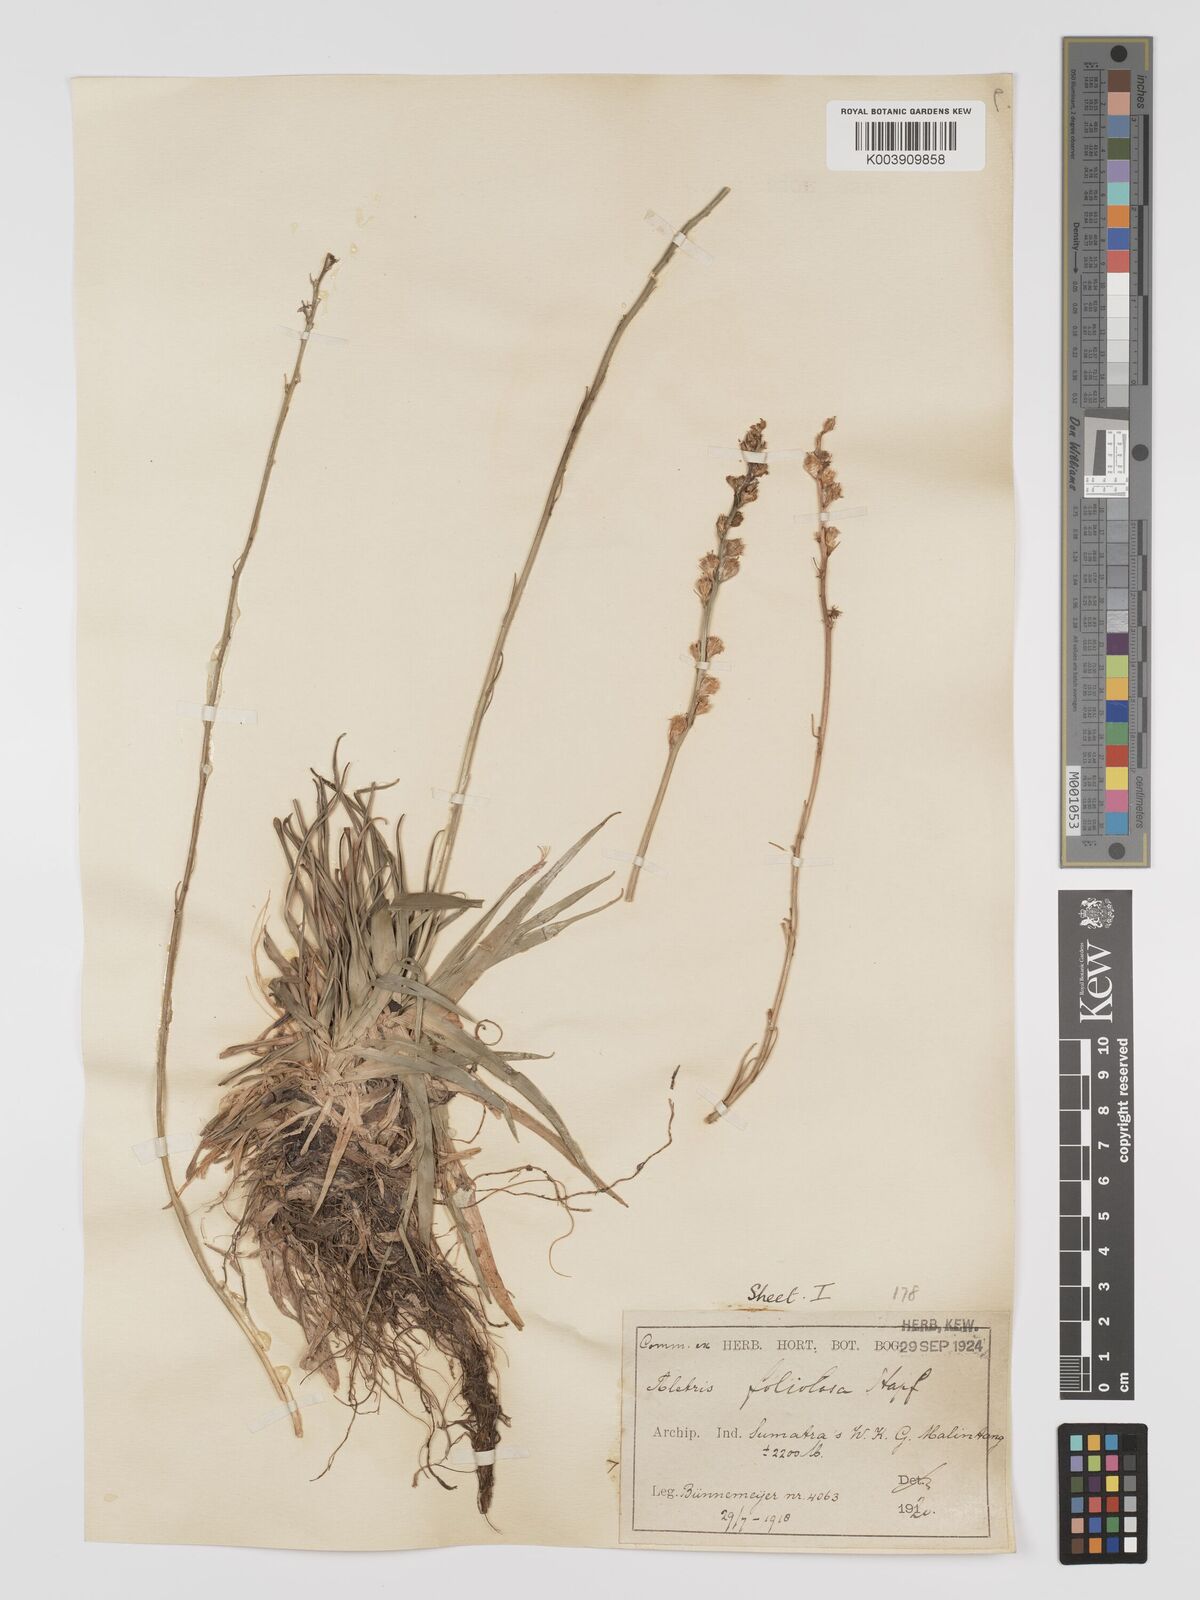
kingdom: Plantae
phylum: Tracheophyta
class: Liliopsida
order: Dioscoreales
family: Nartheciaceae
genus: Aletris
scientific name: Aletris foliolosa
